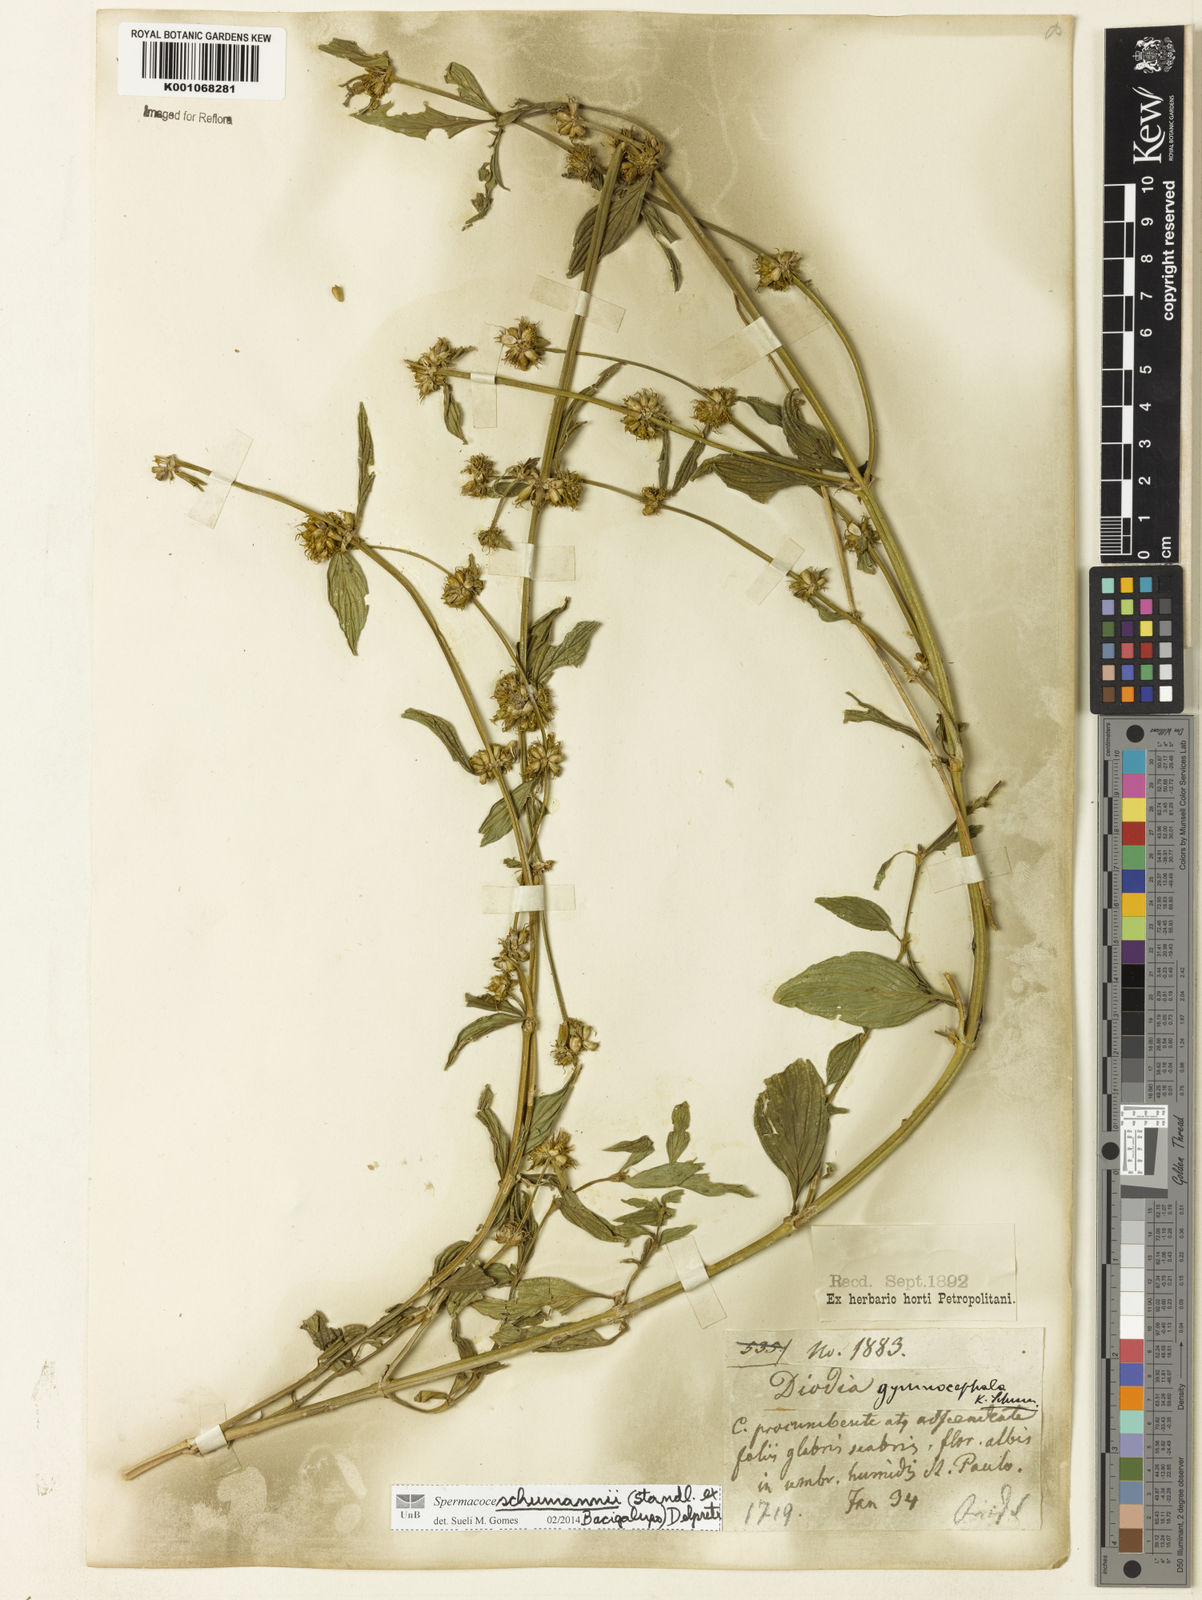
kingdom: Plantae
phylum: Tracheophyta
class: Magnoliopsida
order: Gentianales
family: Rubiaceae
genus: Spermacoce
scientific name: Spermacoce schumannii
